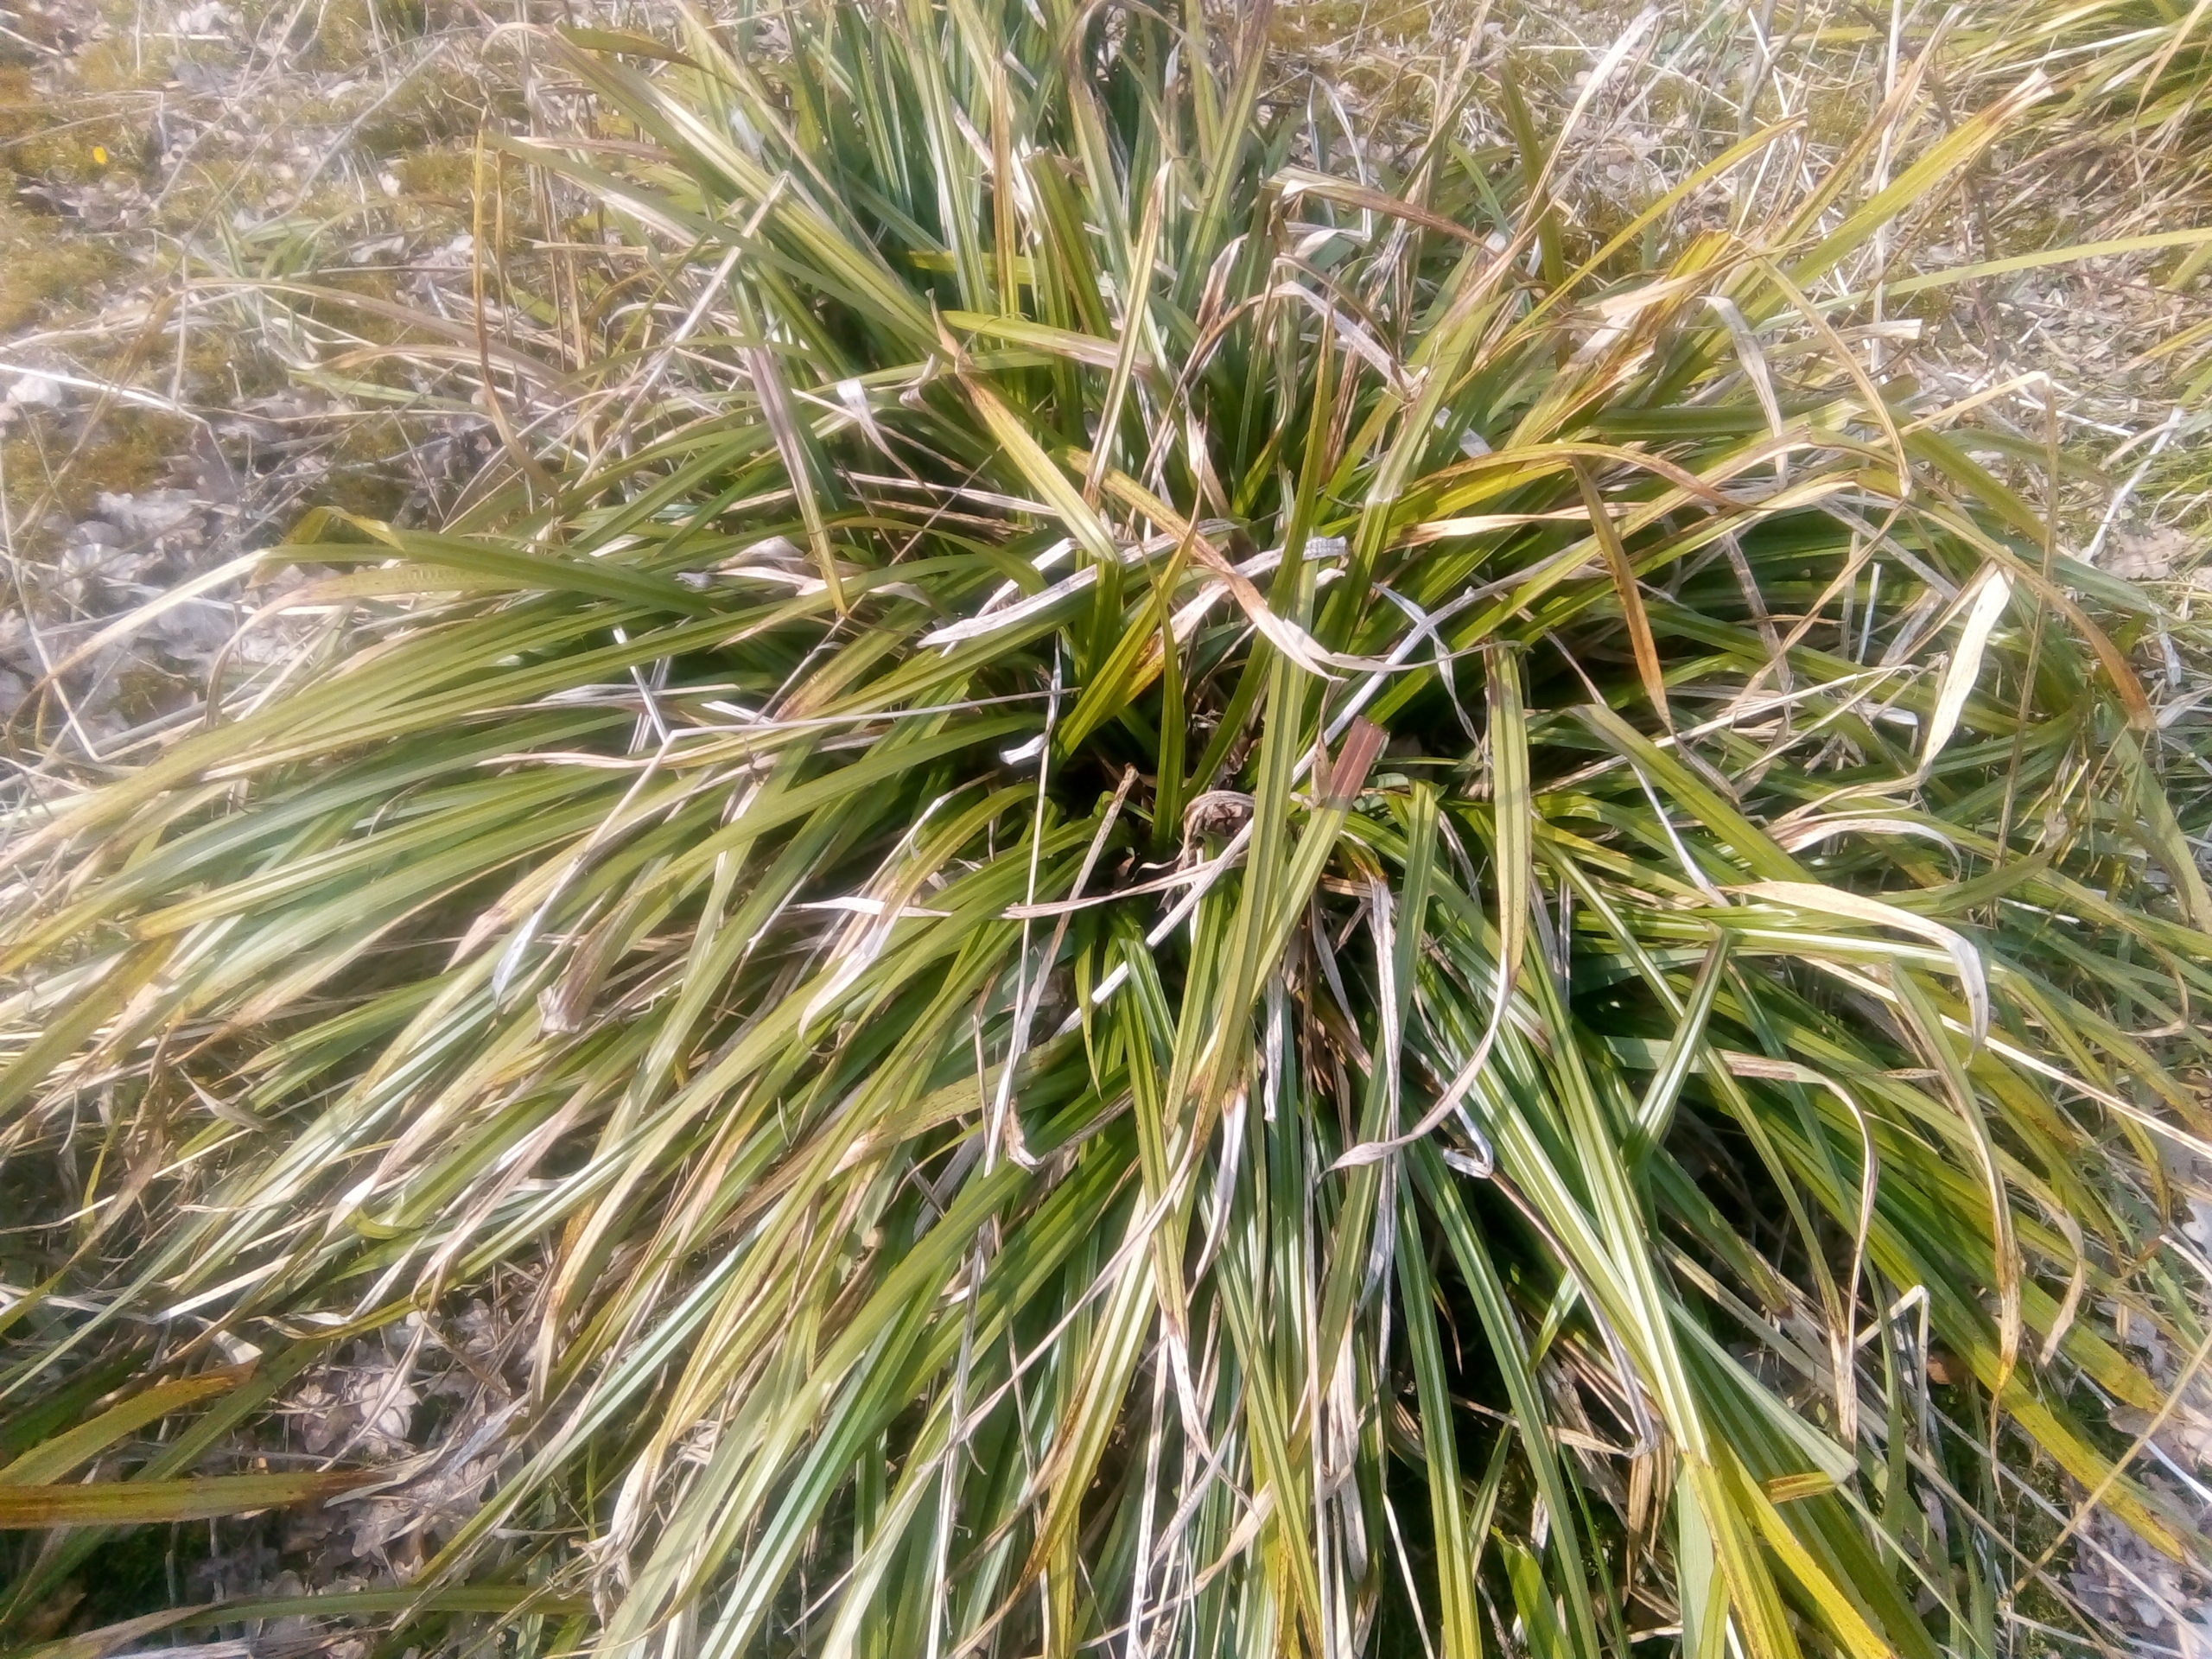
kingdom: Plantae
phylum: Tracheophyta
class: Liliopsida
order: Poales
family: Cyperaceae
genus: Carex
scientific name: Carex pendula
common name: Kæmpe-star
